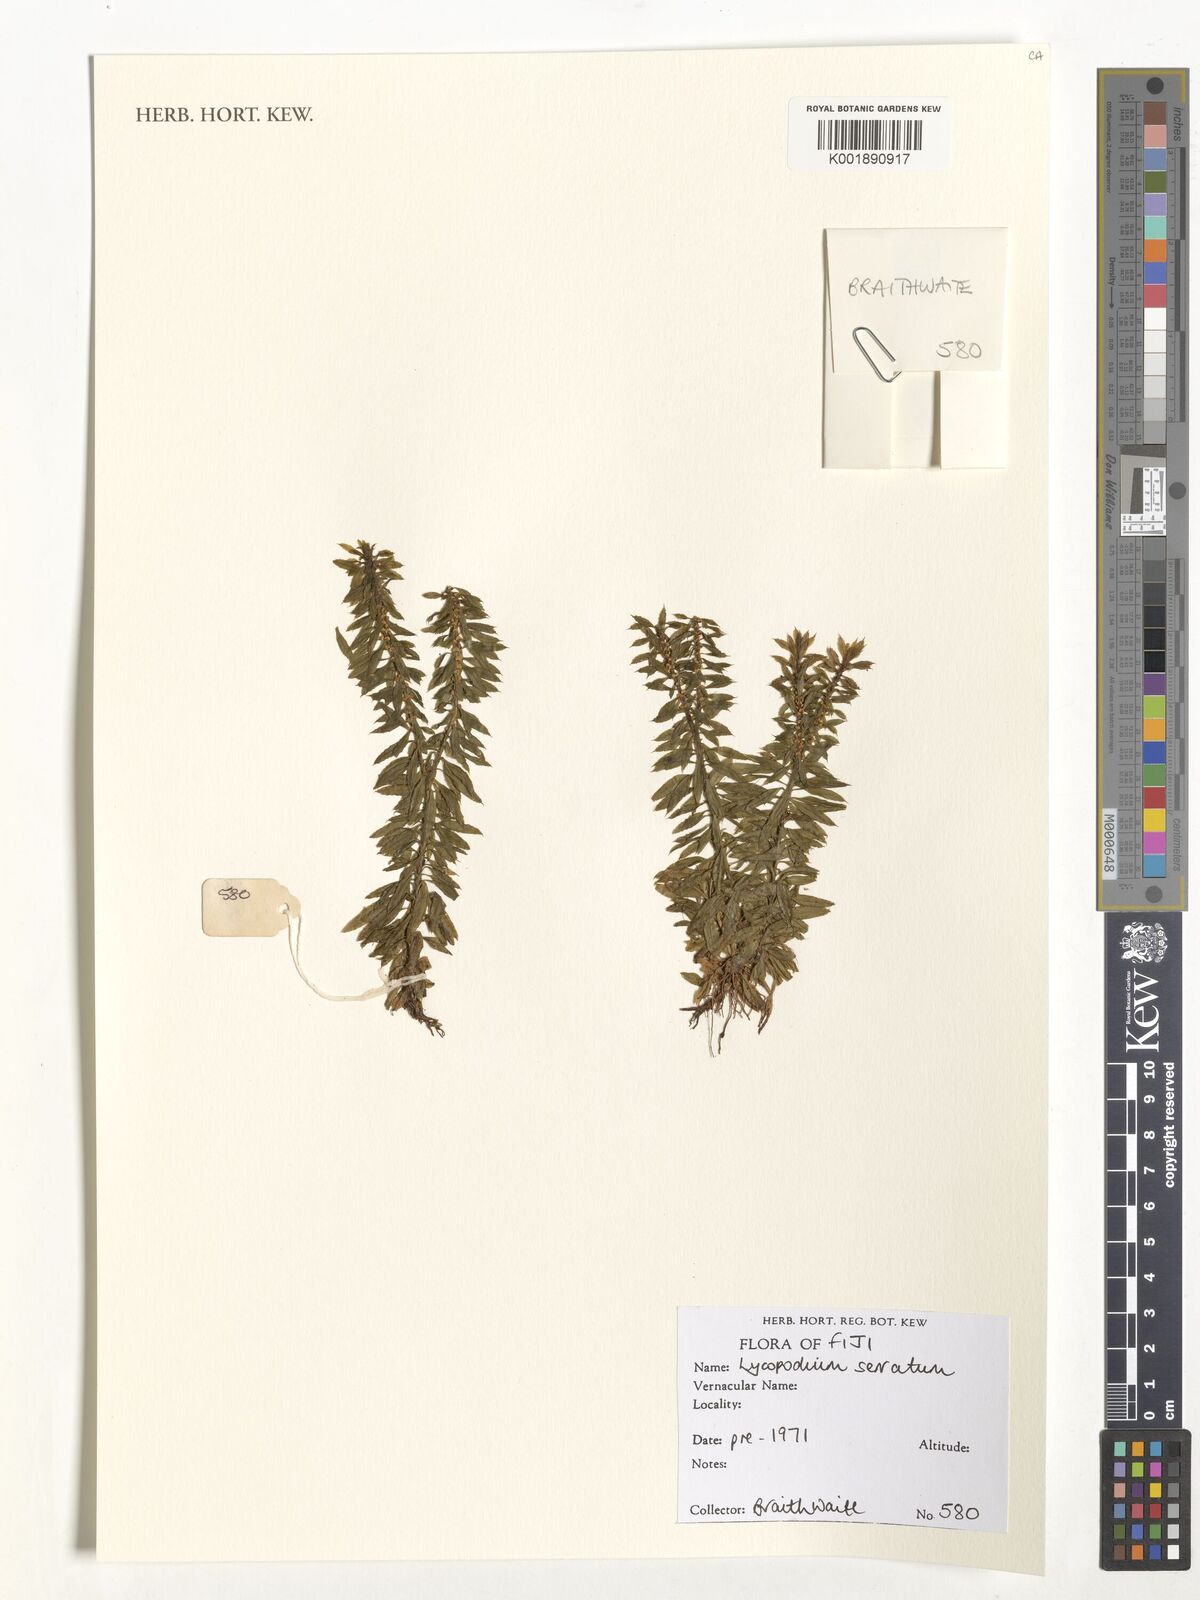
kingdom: Plantae
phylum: Tracheophyta
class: Lycopodiopsida
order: Lycopodiales
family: Lycopodiaceae
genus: Huperzia
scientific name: Huperzia serrata
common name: Toothed club-moss
